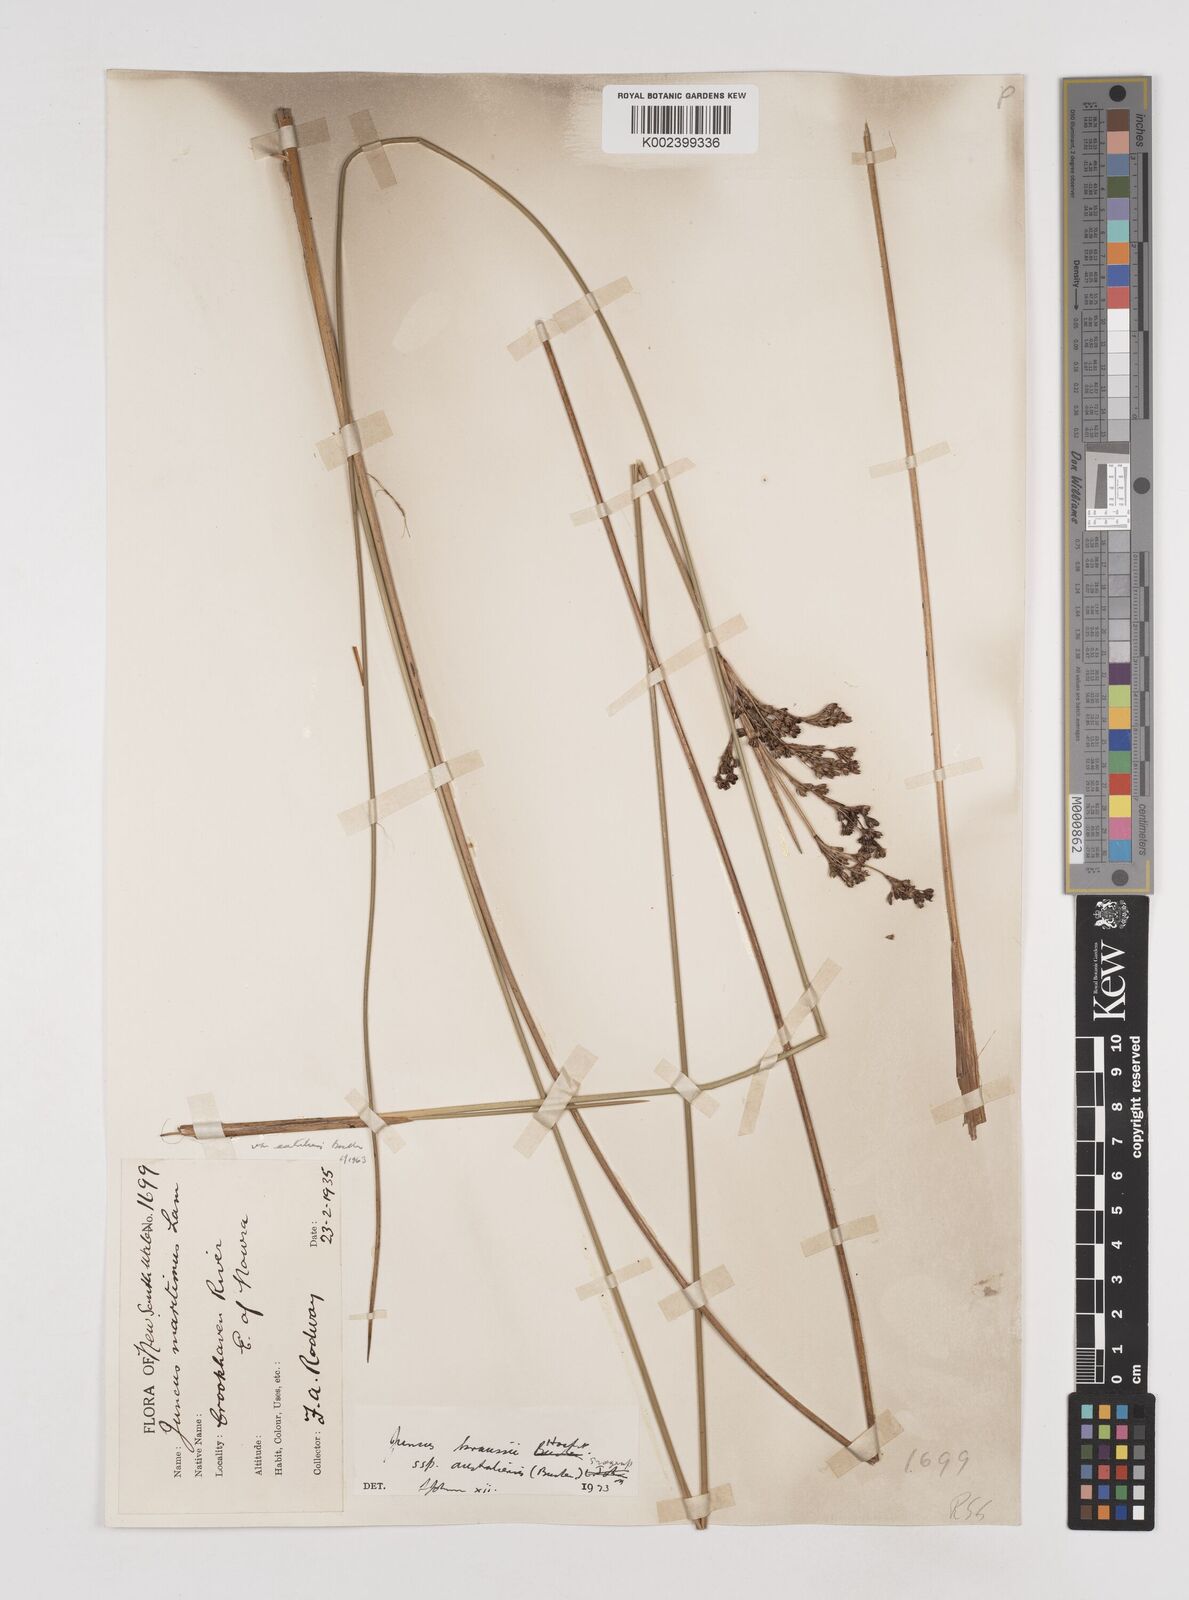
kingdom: Plantae
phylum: Tracheophyta
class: Liliopsida
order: Poales
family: Juncaceae
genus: Juncus
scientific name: Juncus kraussii
